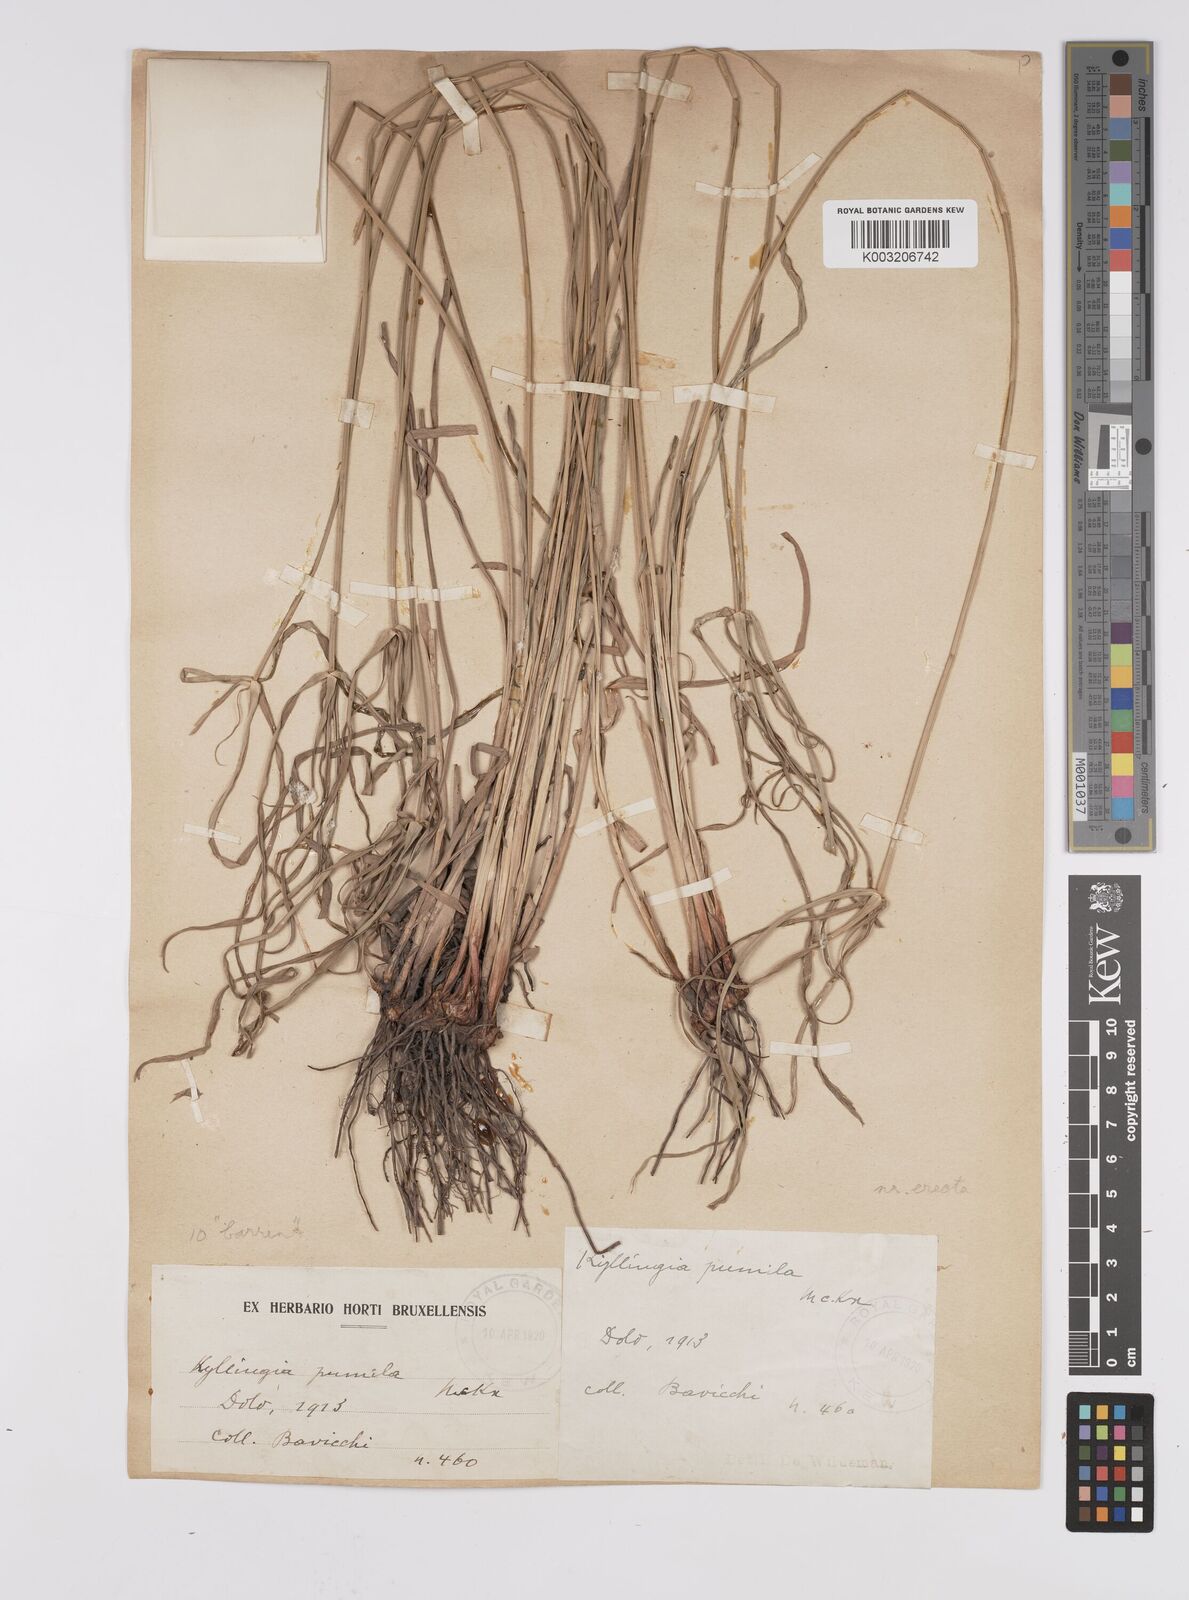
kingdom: Plantae
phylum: Tracheophyta
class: Liliopsida
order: Poales
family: Cyperaceae
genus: Cyperus
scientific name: Cyperus
